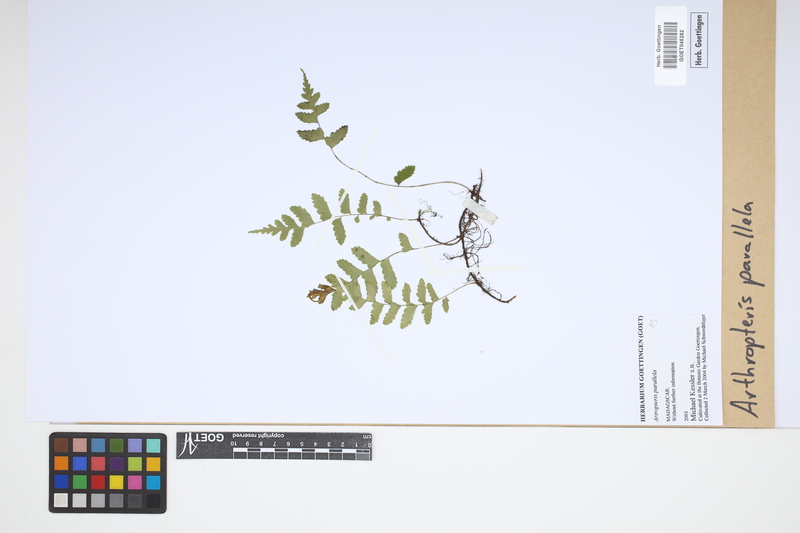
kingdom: Plantae
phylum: Tracheophyta
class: Polypodiopsida
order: Polypodiales
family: Tectariaceae
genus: Arthropteris
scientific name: Arthropteris parallela
